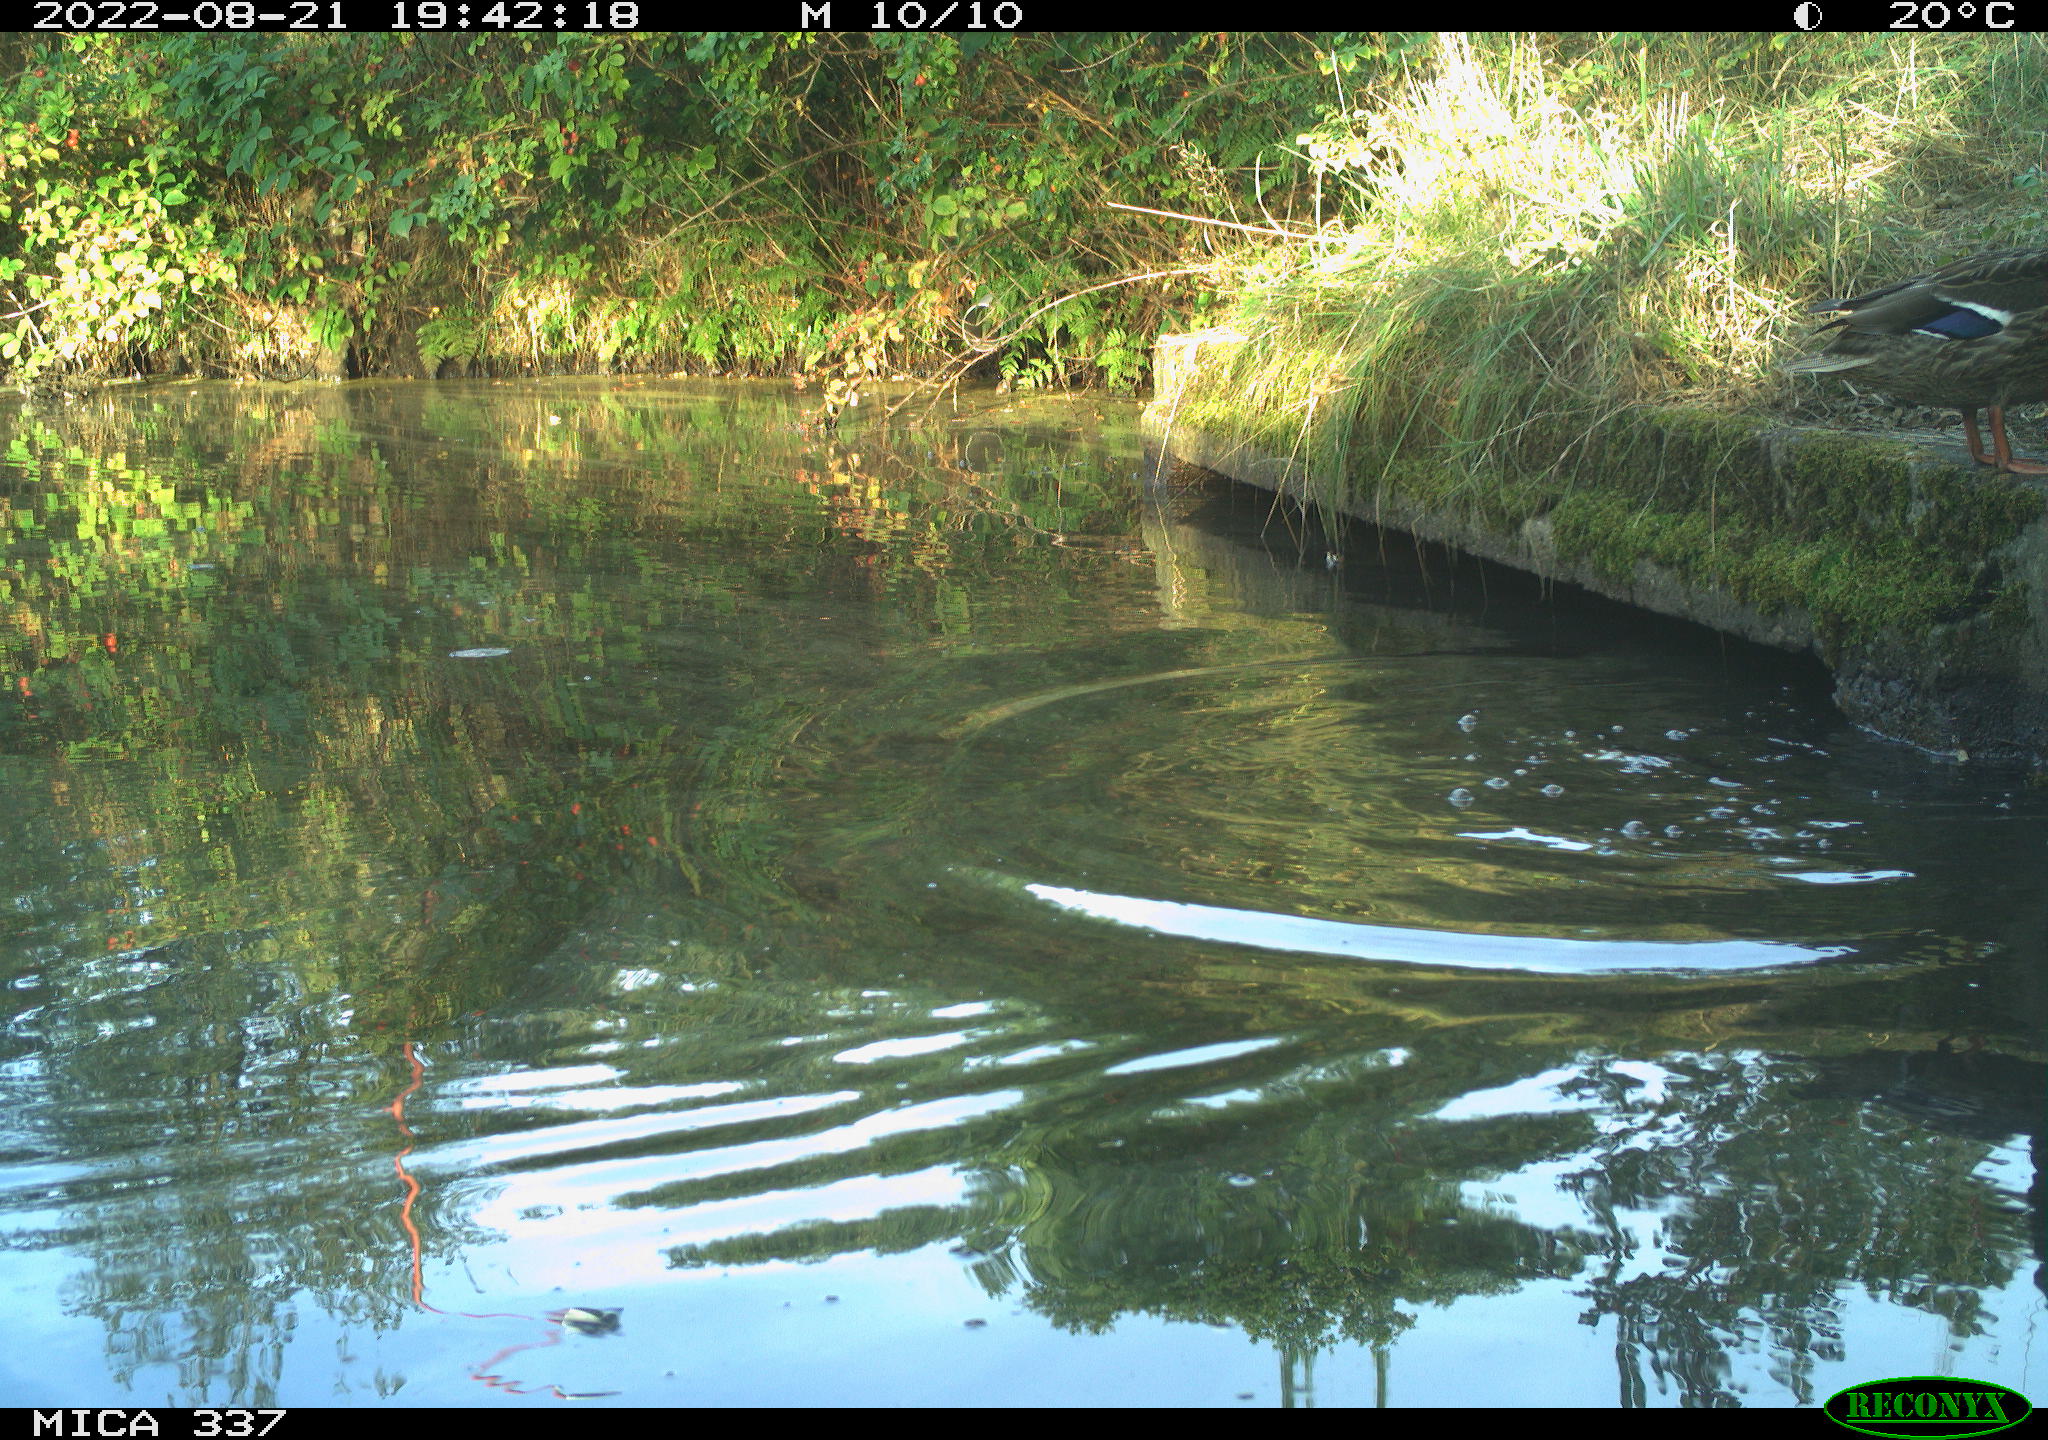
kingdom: Animalia
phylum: Chordata
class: Aves
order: Anseriformes
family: Anatidae
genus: Anas
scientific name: Anas platyrhynchos
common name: Mallard
